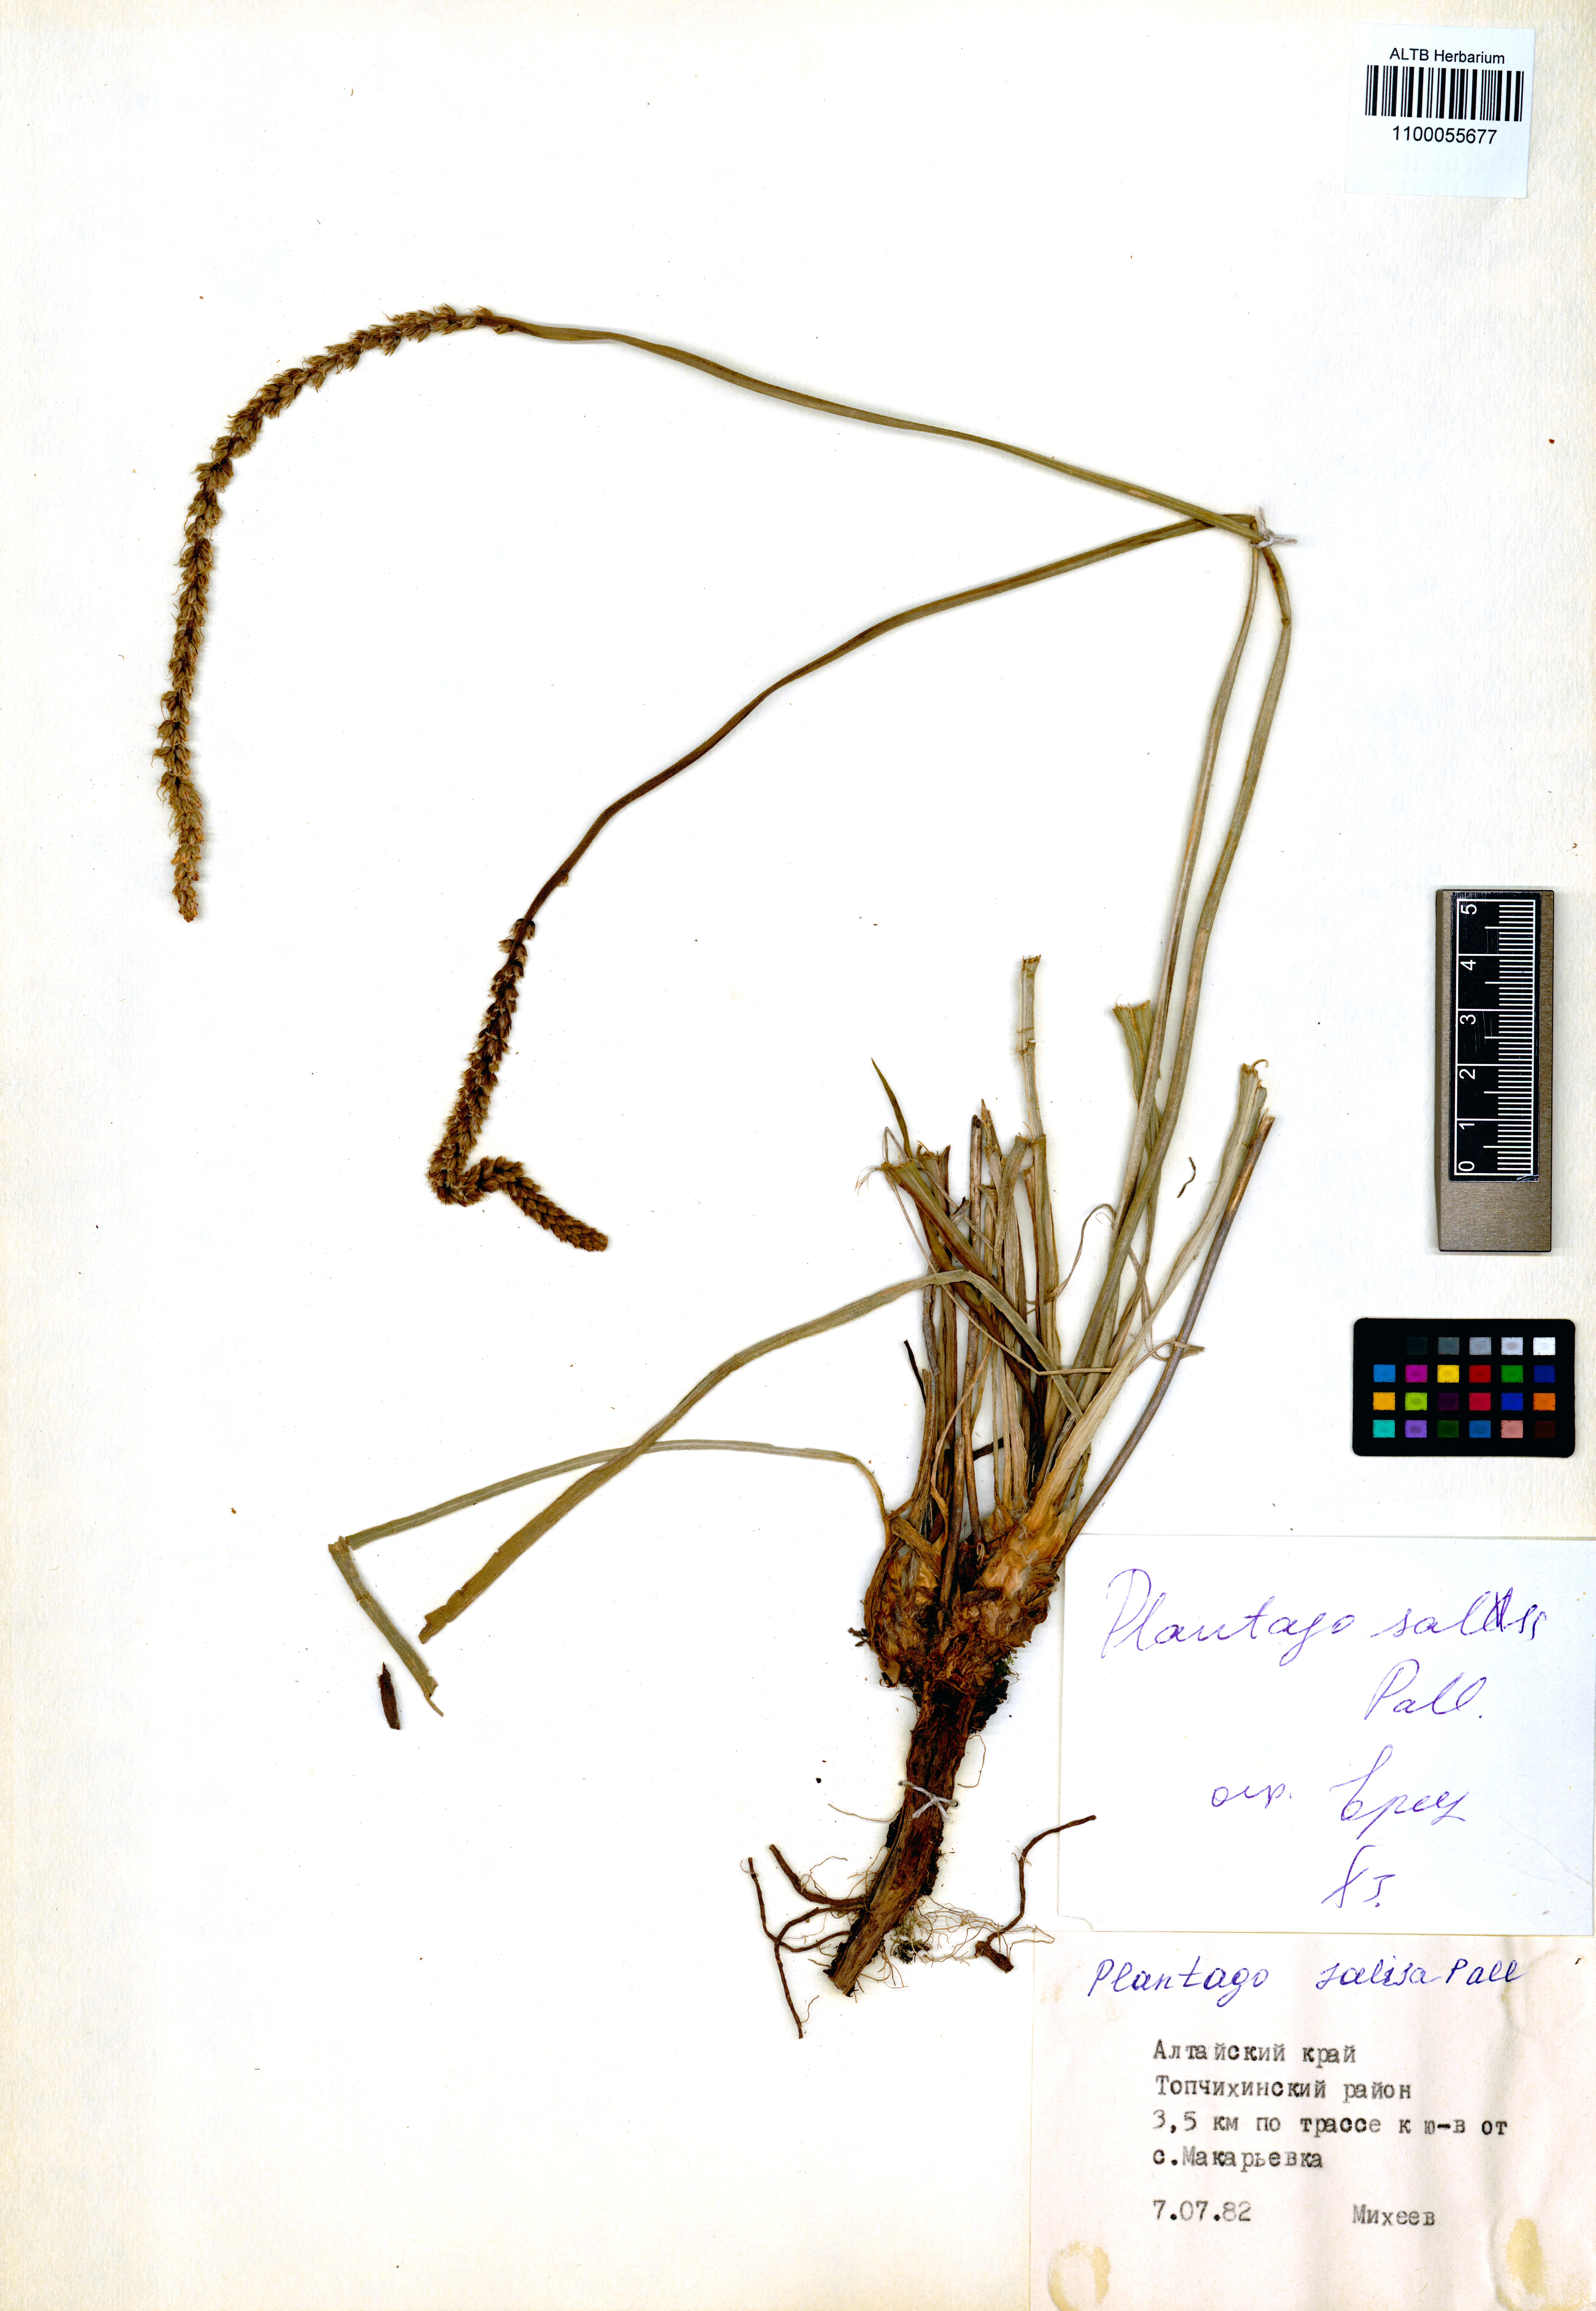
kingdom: Plantae
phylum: Tracheophyta
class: Magnoliopsida
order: Lamiales
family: Plantaginaceae
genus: Plantago
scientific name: Plantago salsa
